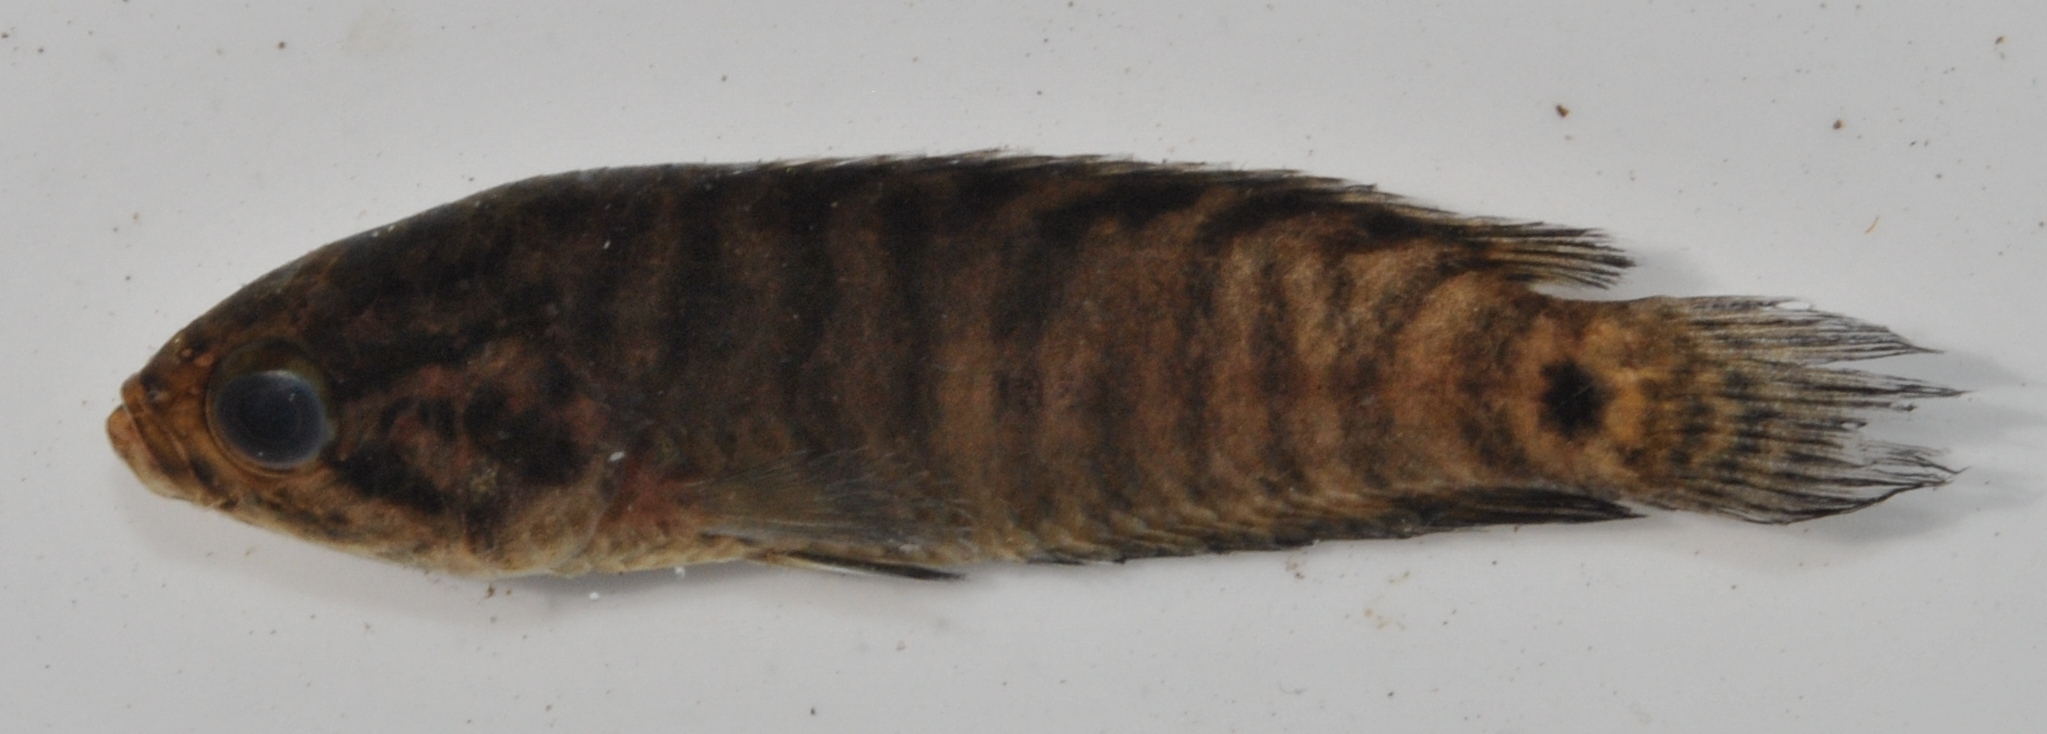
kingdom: Animalia
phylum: Chordata
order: Perciformes
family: Anabantidae
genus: Microctenopoma
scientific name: Microctenopoma intermedium
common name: Blackspot climbing perch
